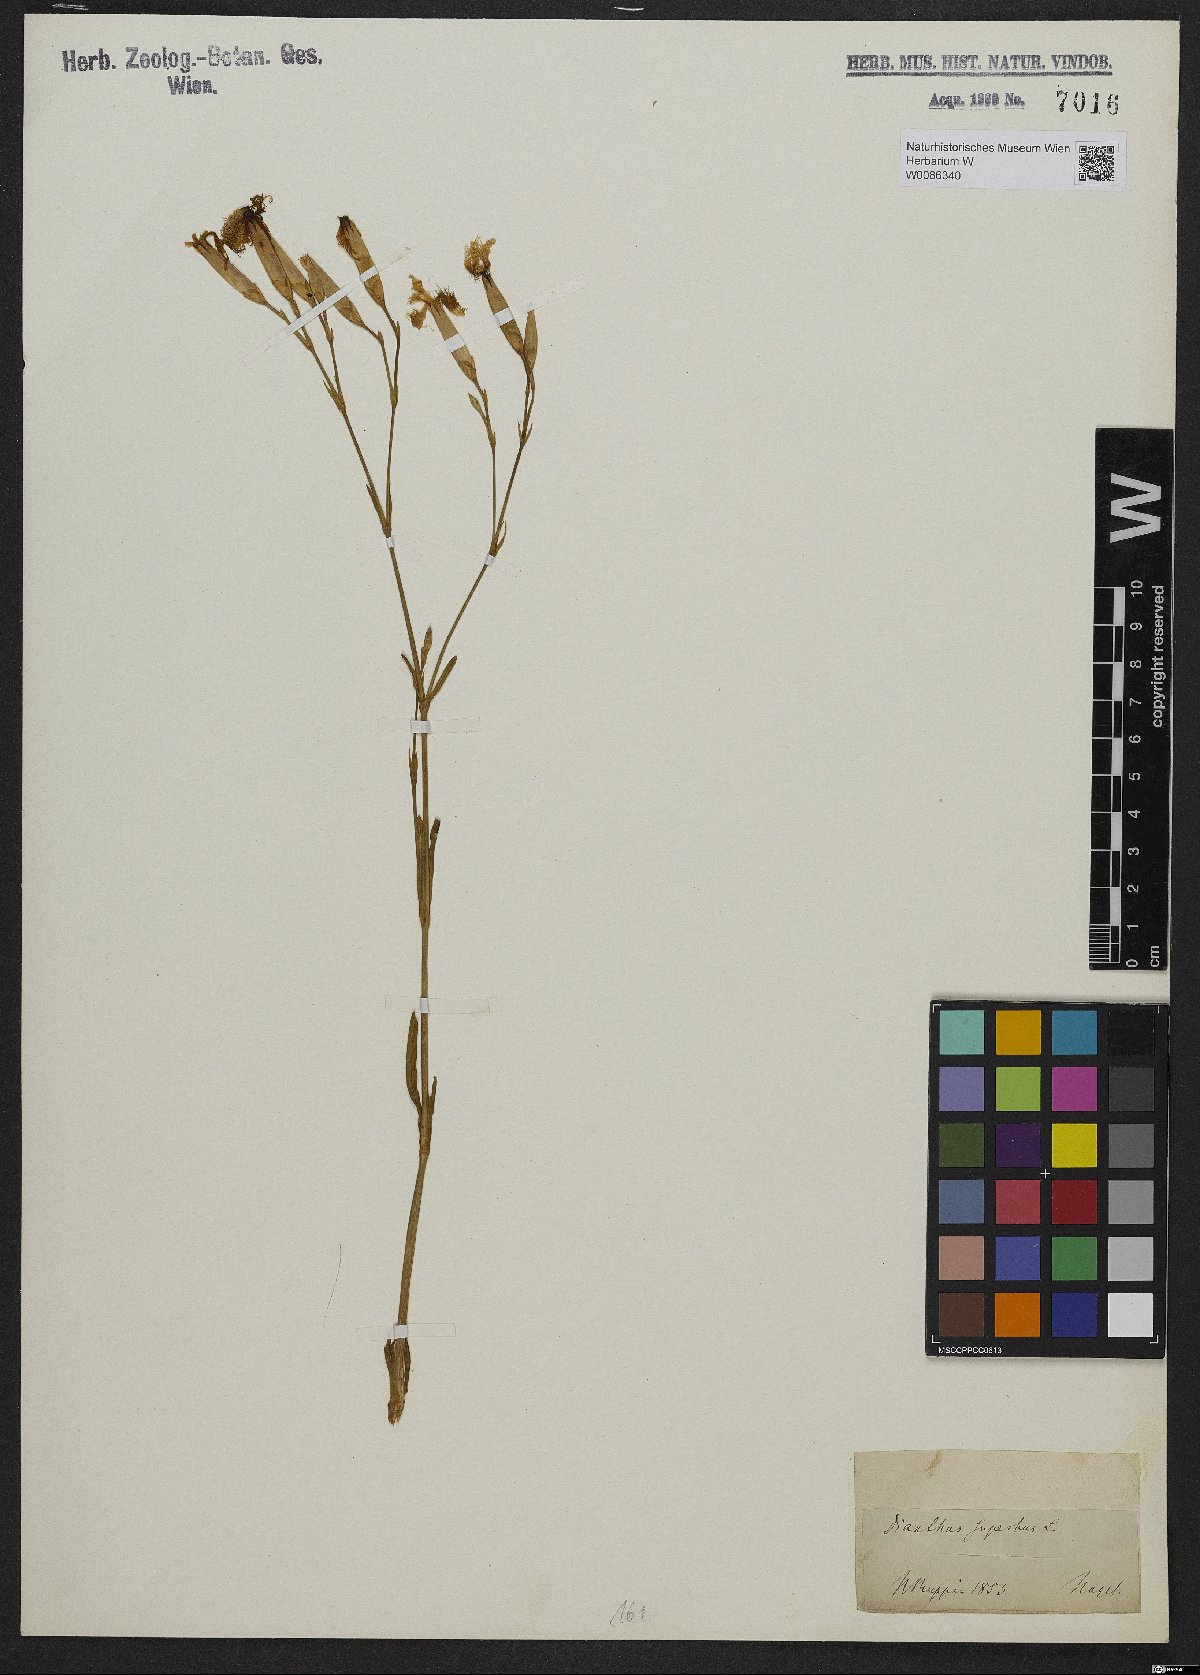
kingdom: Plantae
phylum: Tracheophyta
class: Magnoliopsida
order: Caryophyllales
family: Caryophyllaceae
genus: Dianthus
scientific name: Dianthus superbus
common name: Fringed pink
